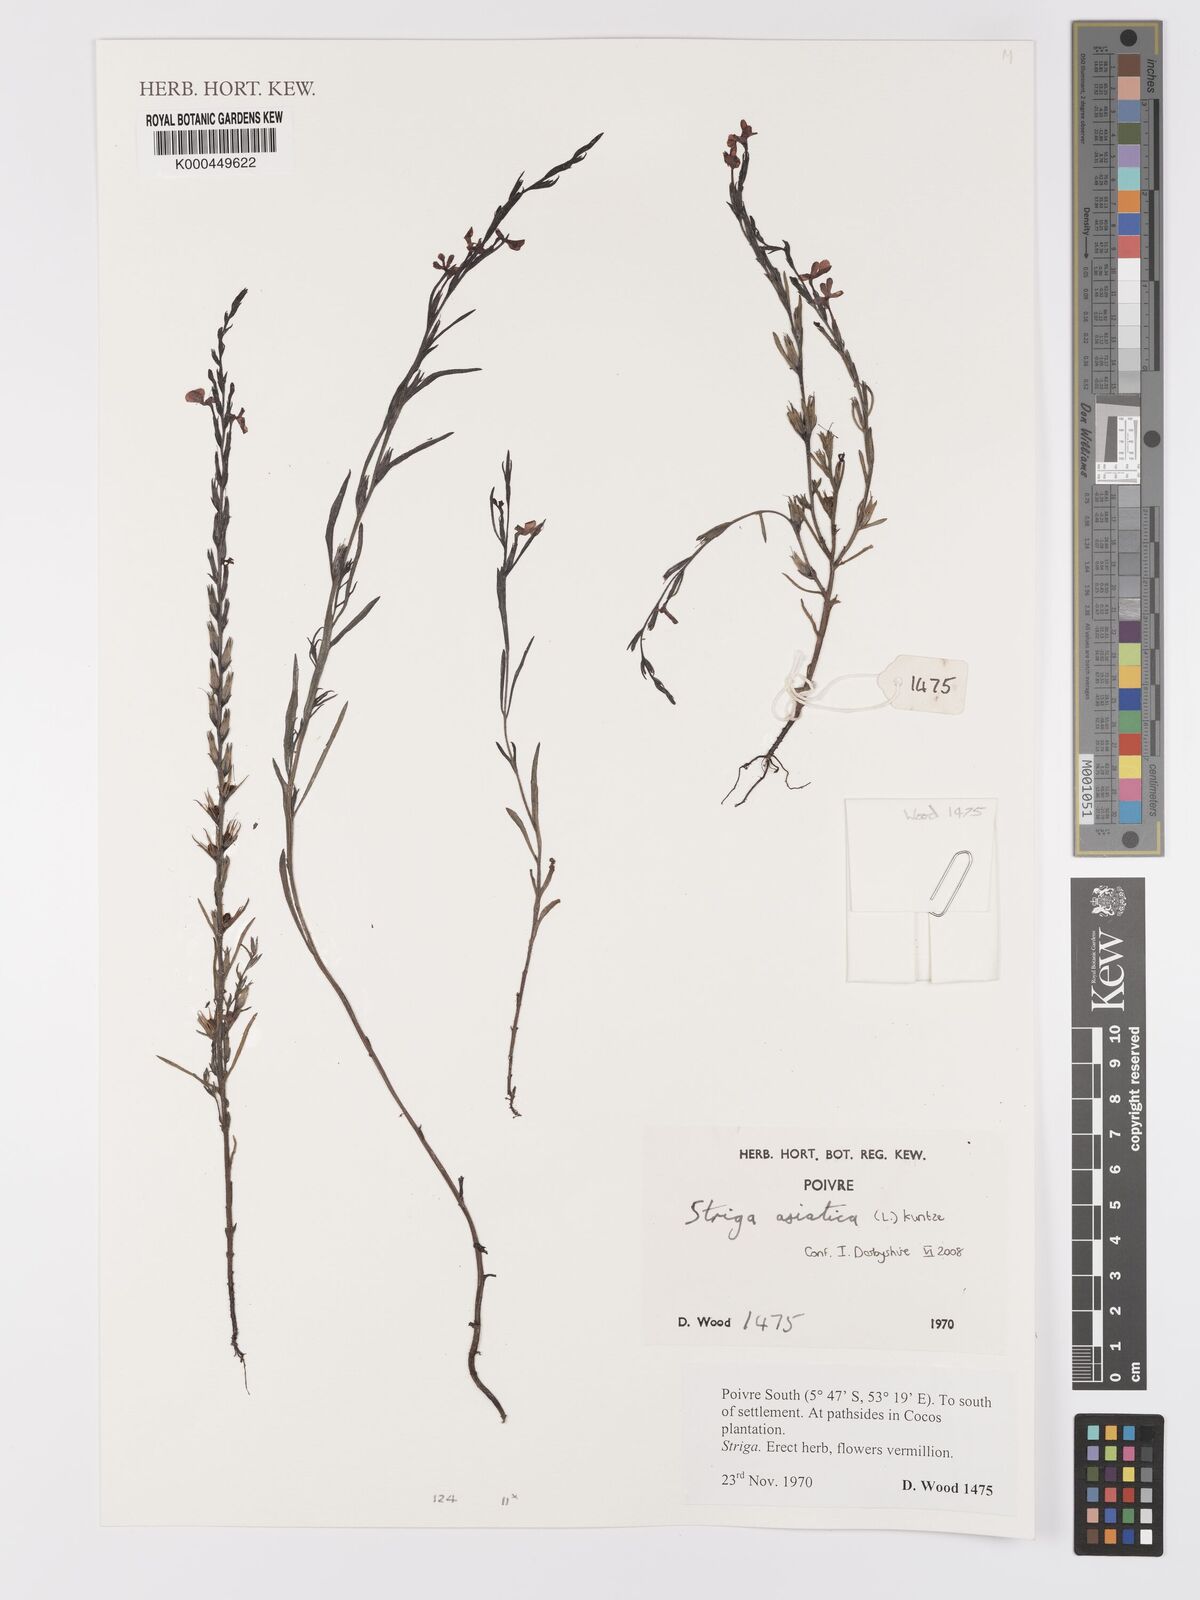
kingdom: Plantae
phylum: Tracheophyta
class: Magnoliopsida
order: Lamiales
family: Orobanchaceae
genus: Striga
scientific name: Striga asiatica
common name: Asiatic witchweed
